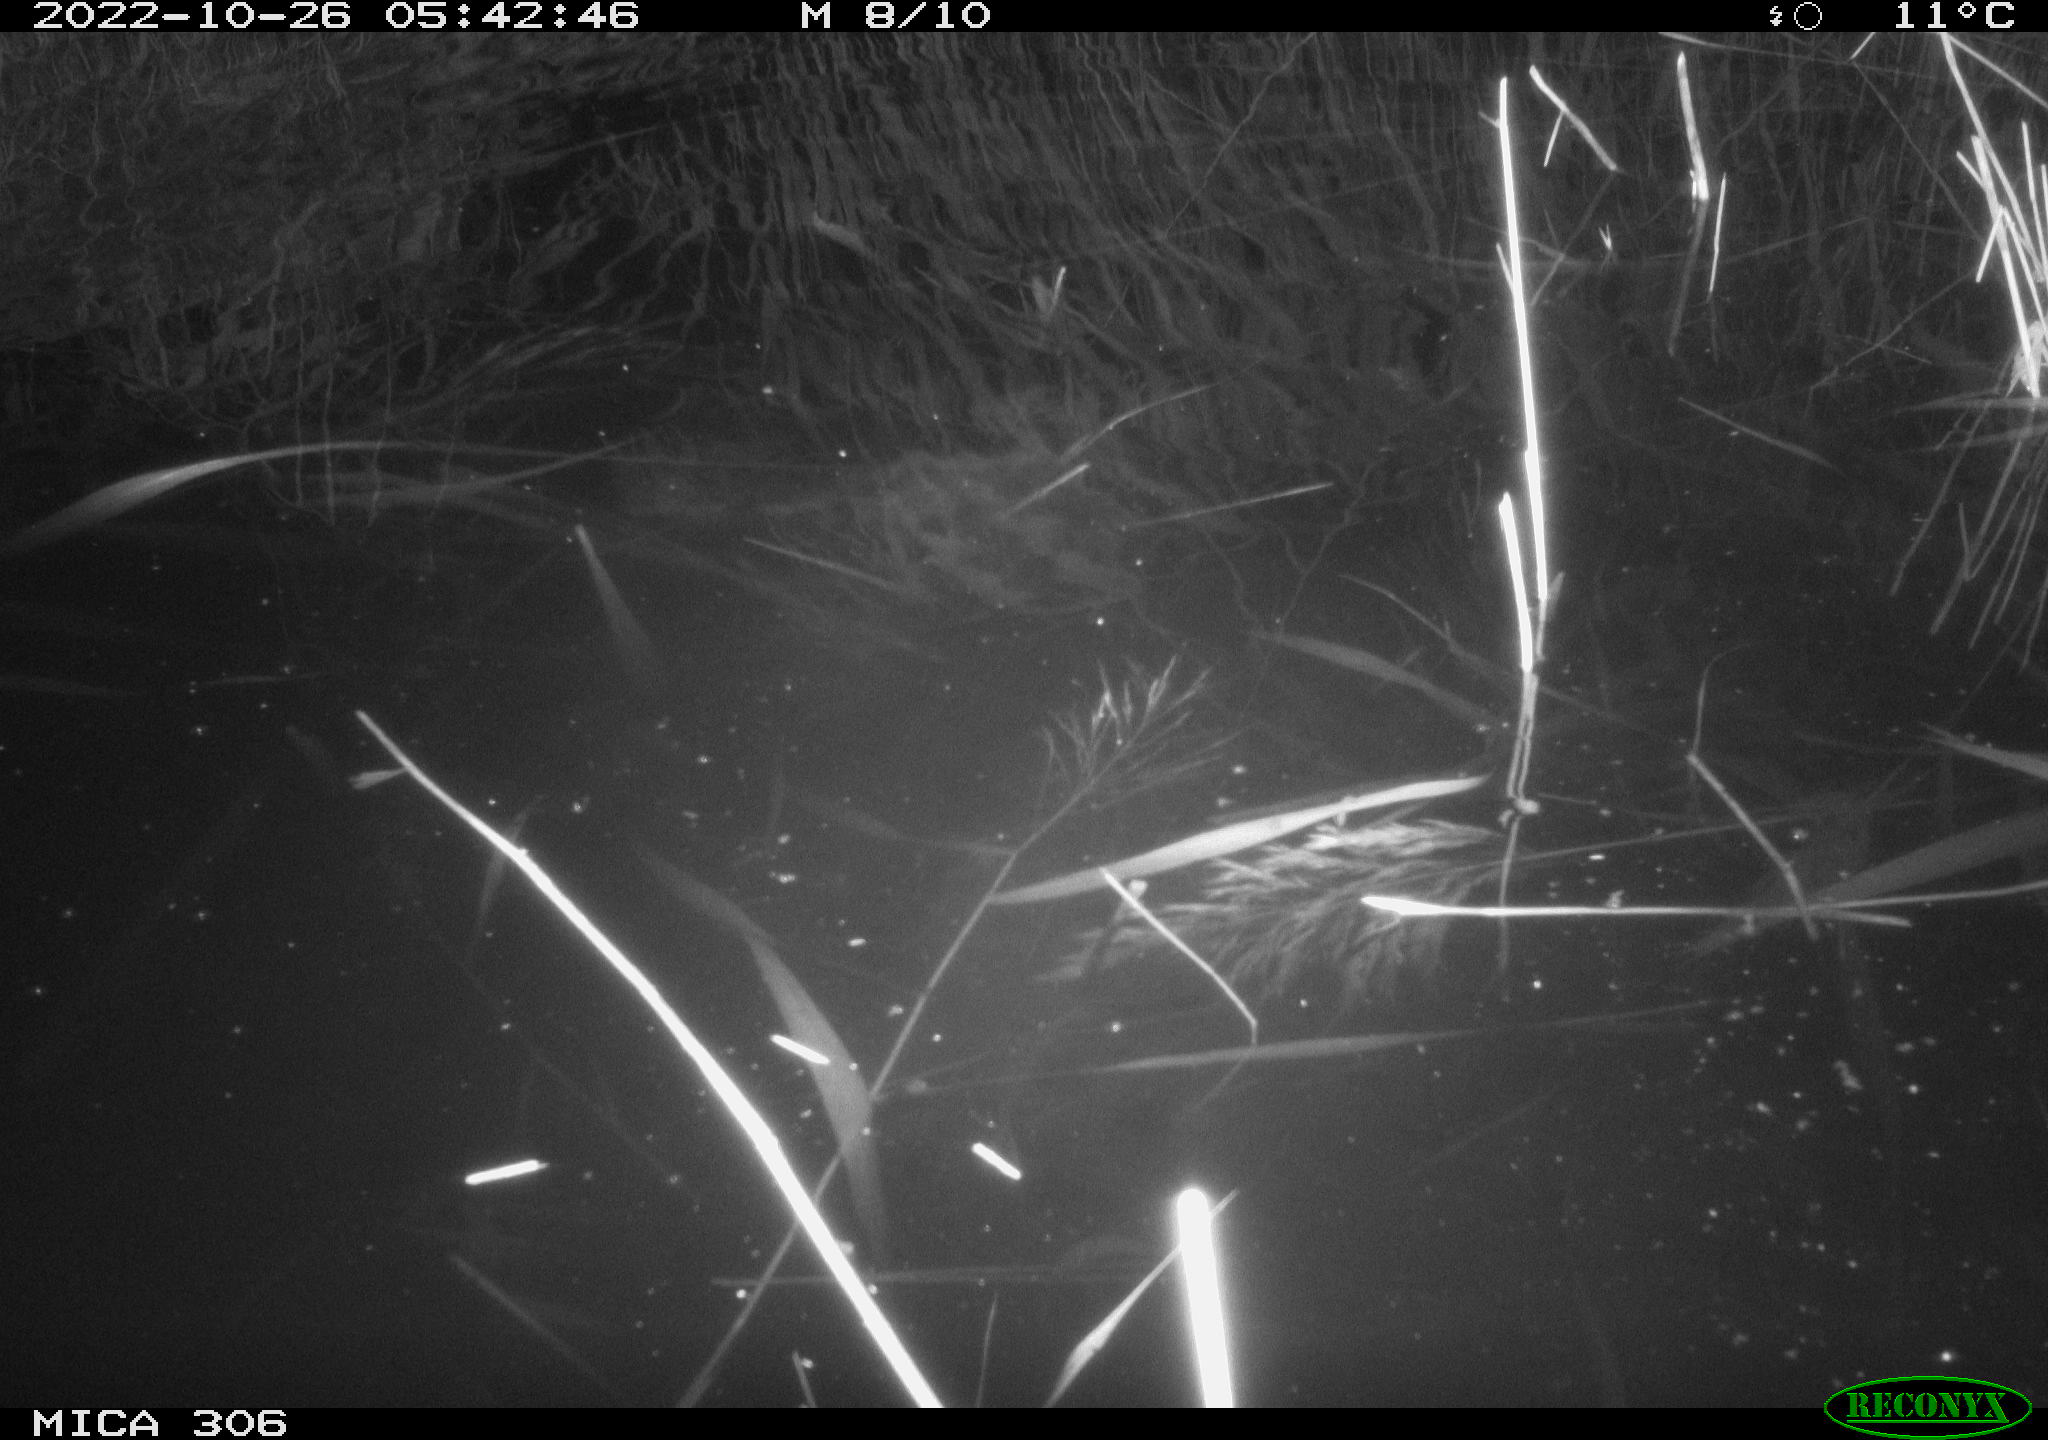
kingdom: Animalia
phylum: Chordata
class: Mammalia
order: Rodentia
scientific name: Rodentia
